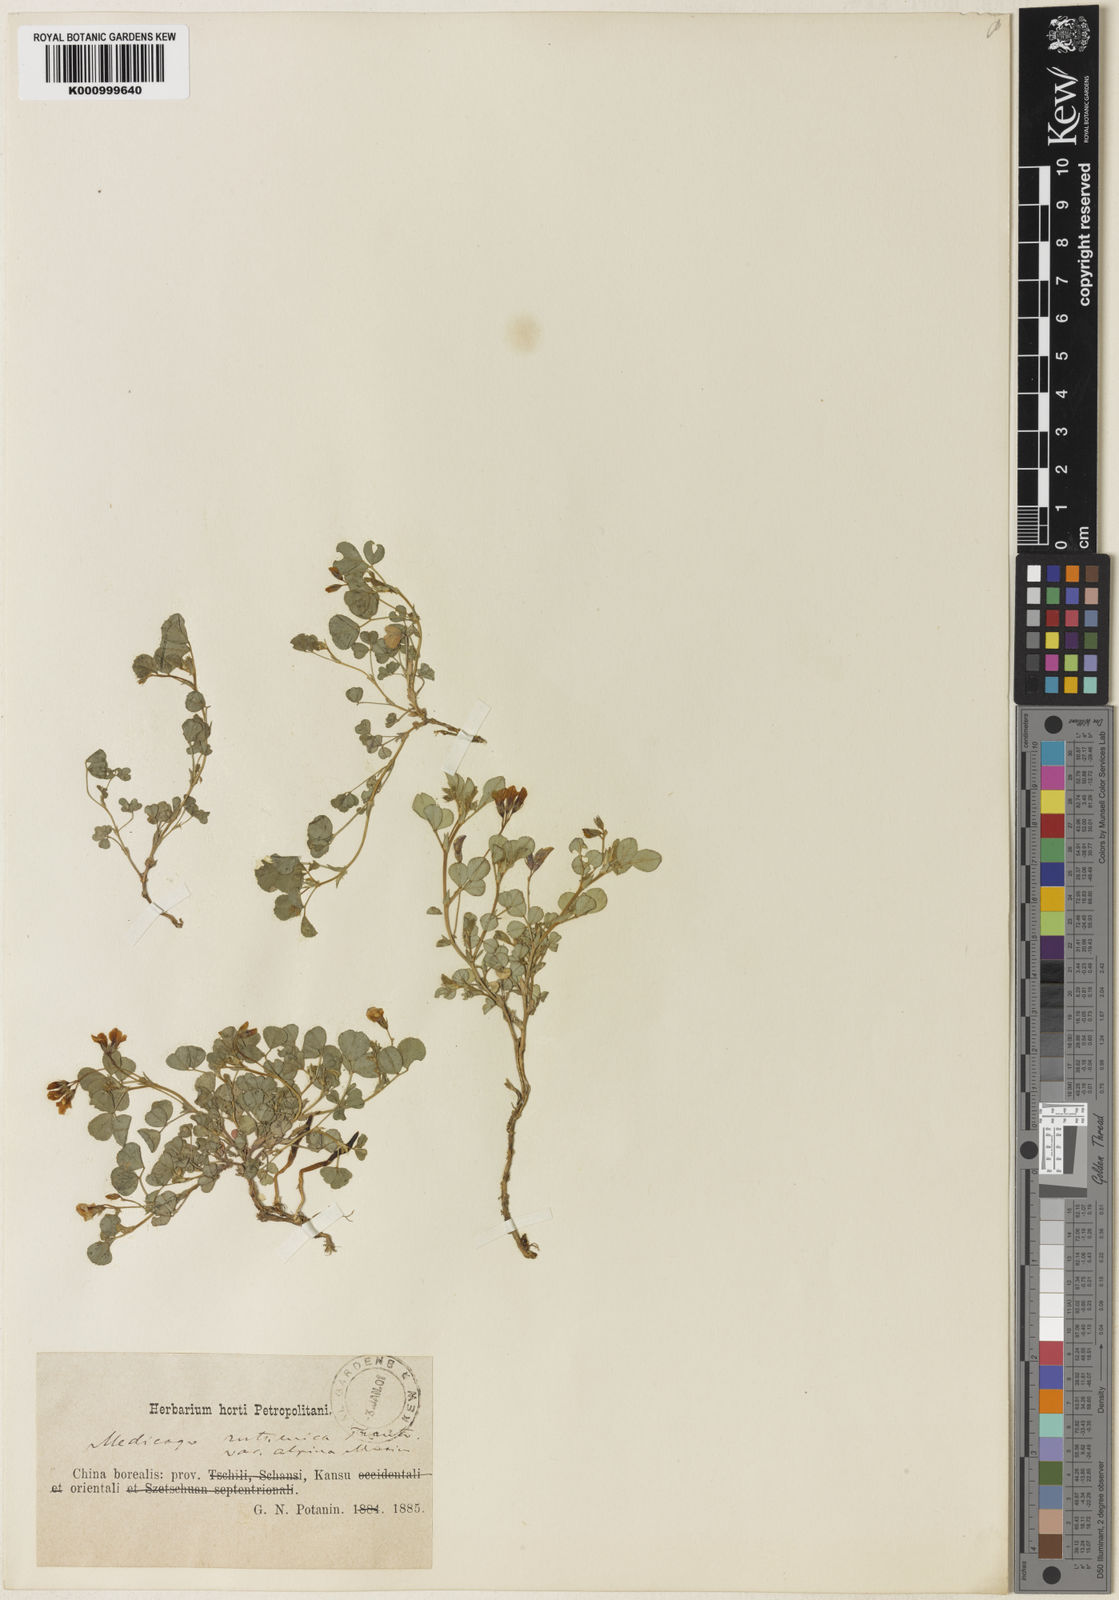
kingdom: Plantae
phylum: Tracheophyta
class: Magnoliopsida
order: Fabales
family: Fabaceae
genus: Medicago
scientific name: Medicago ruthenica
